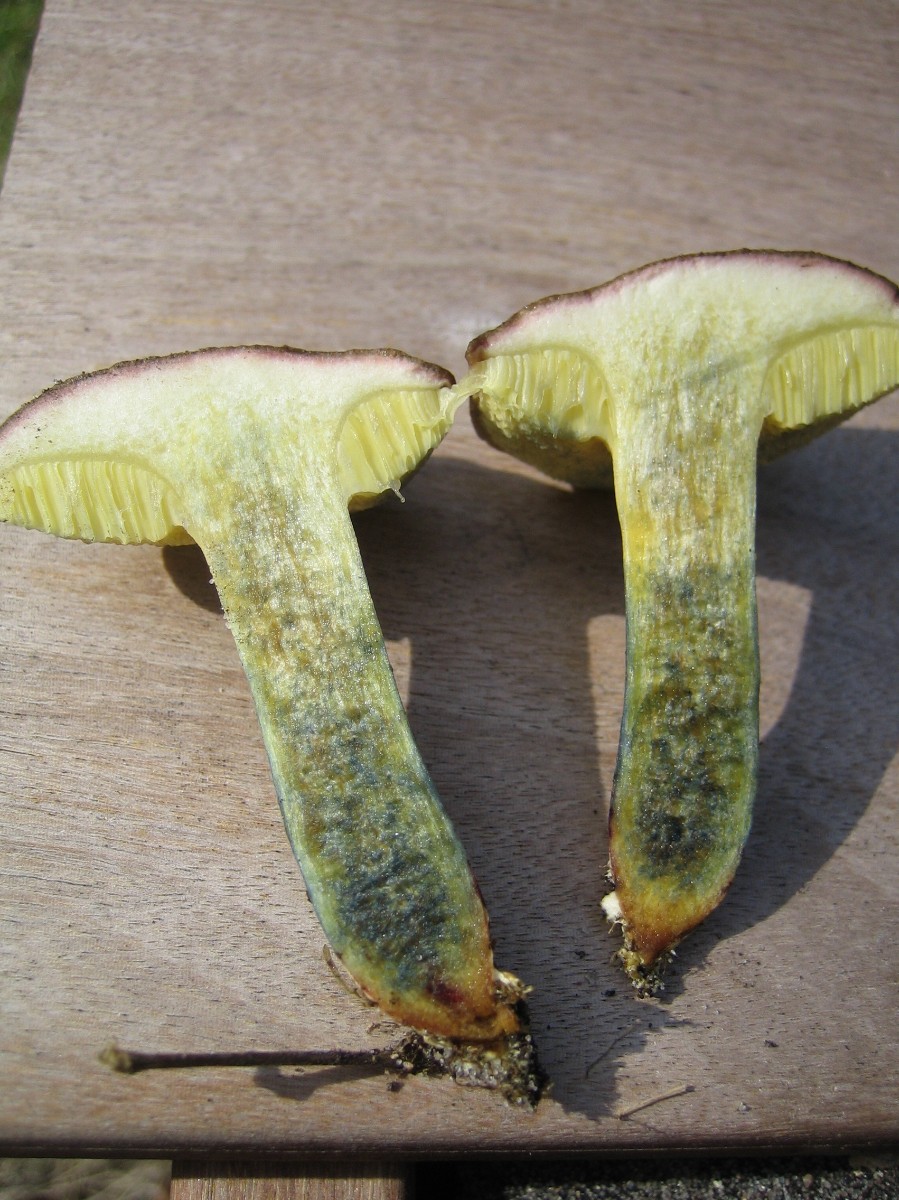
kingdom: Fungi
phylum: Basidiomycota
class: Agaricomycetes
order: Boletales
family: Boletaceae
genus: Xerocomellus
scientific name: Xerocomellus cisalpinus
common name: finsprukken rørhat
